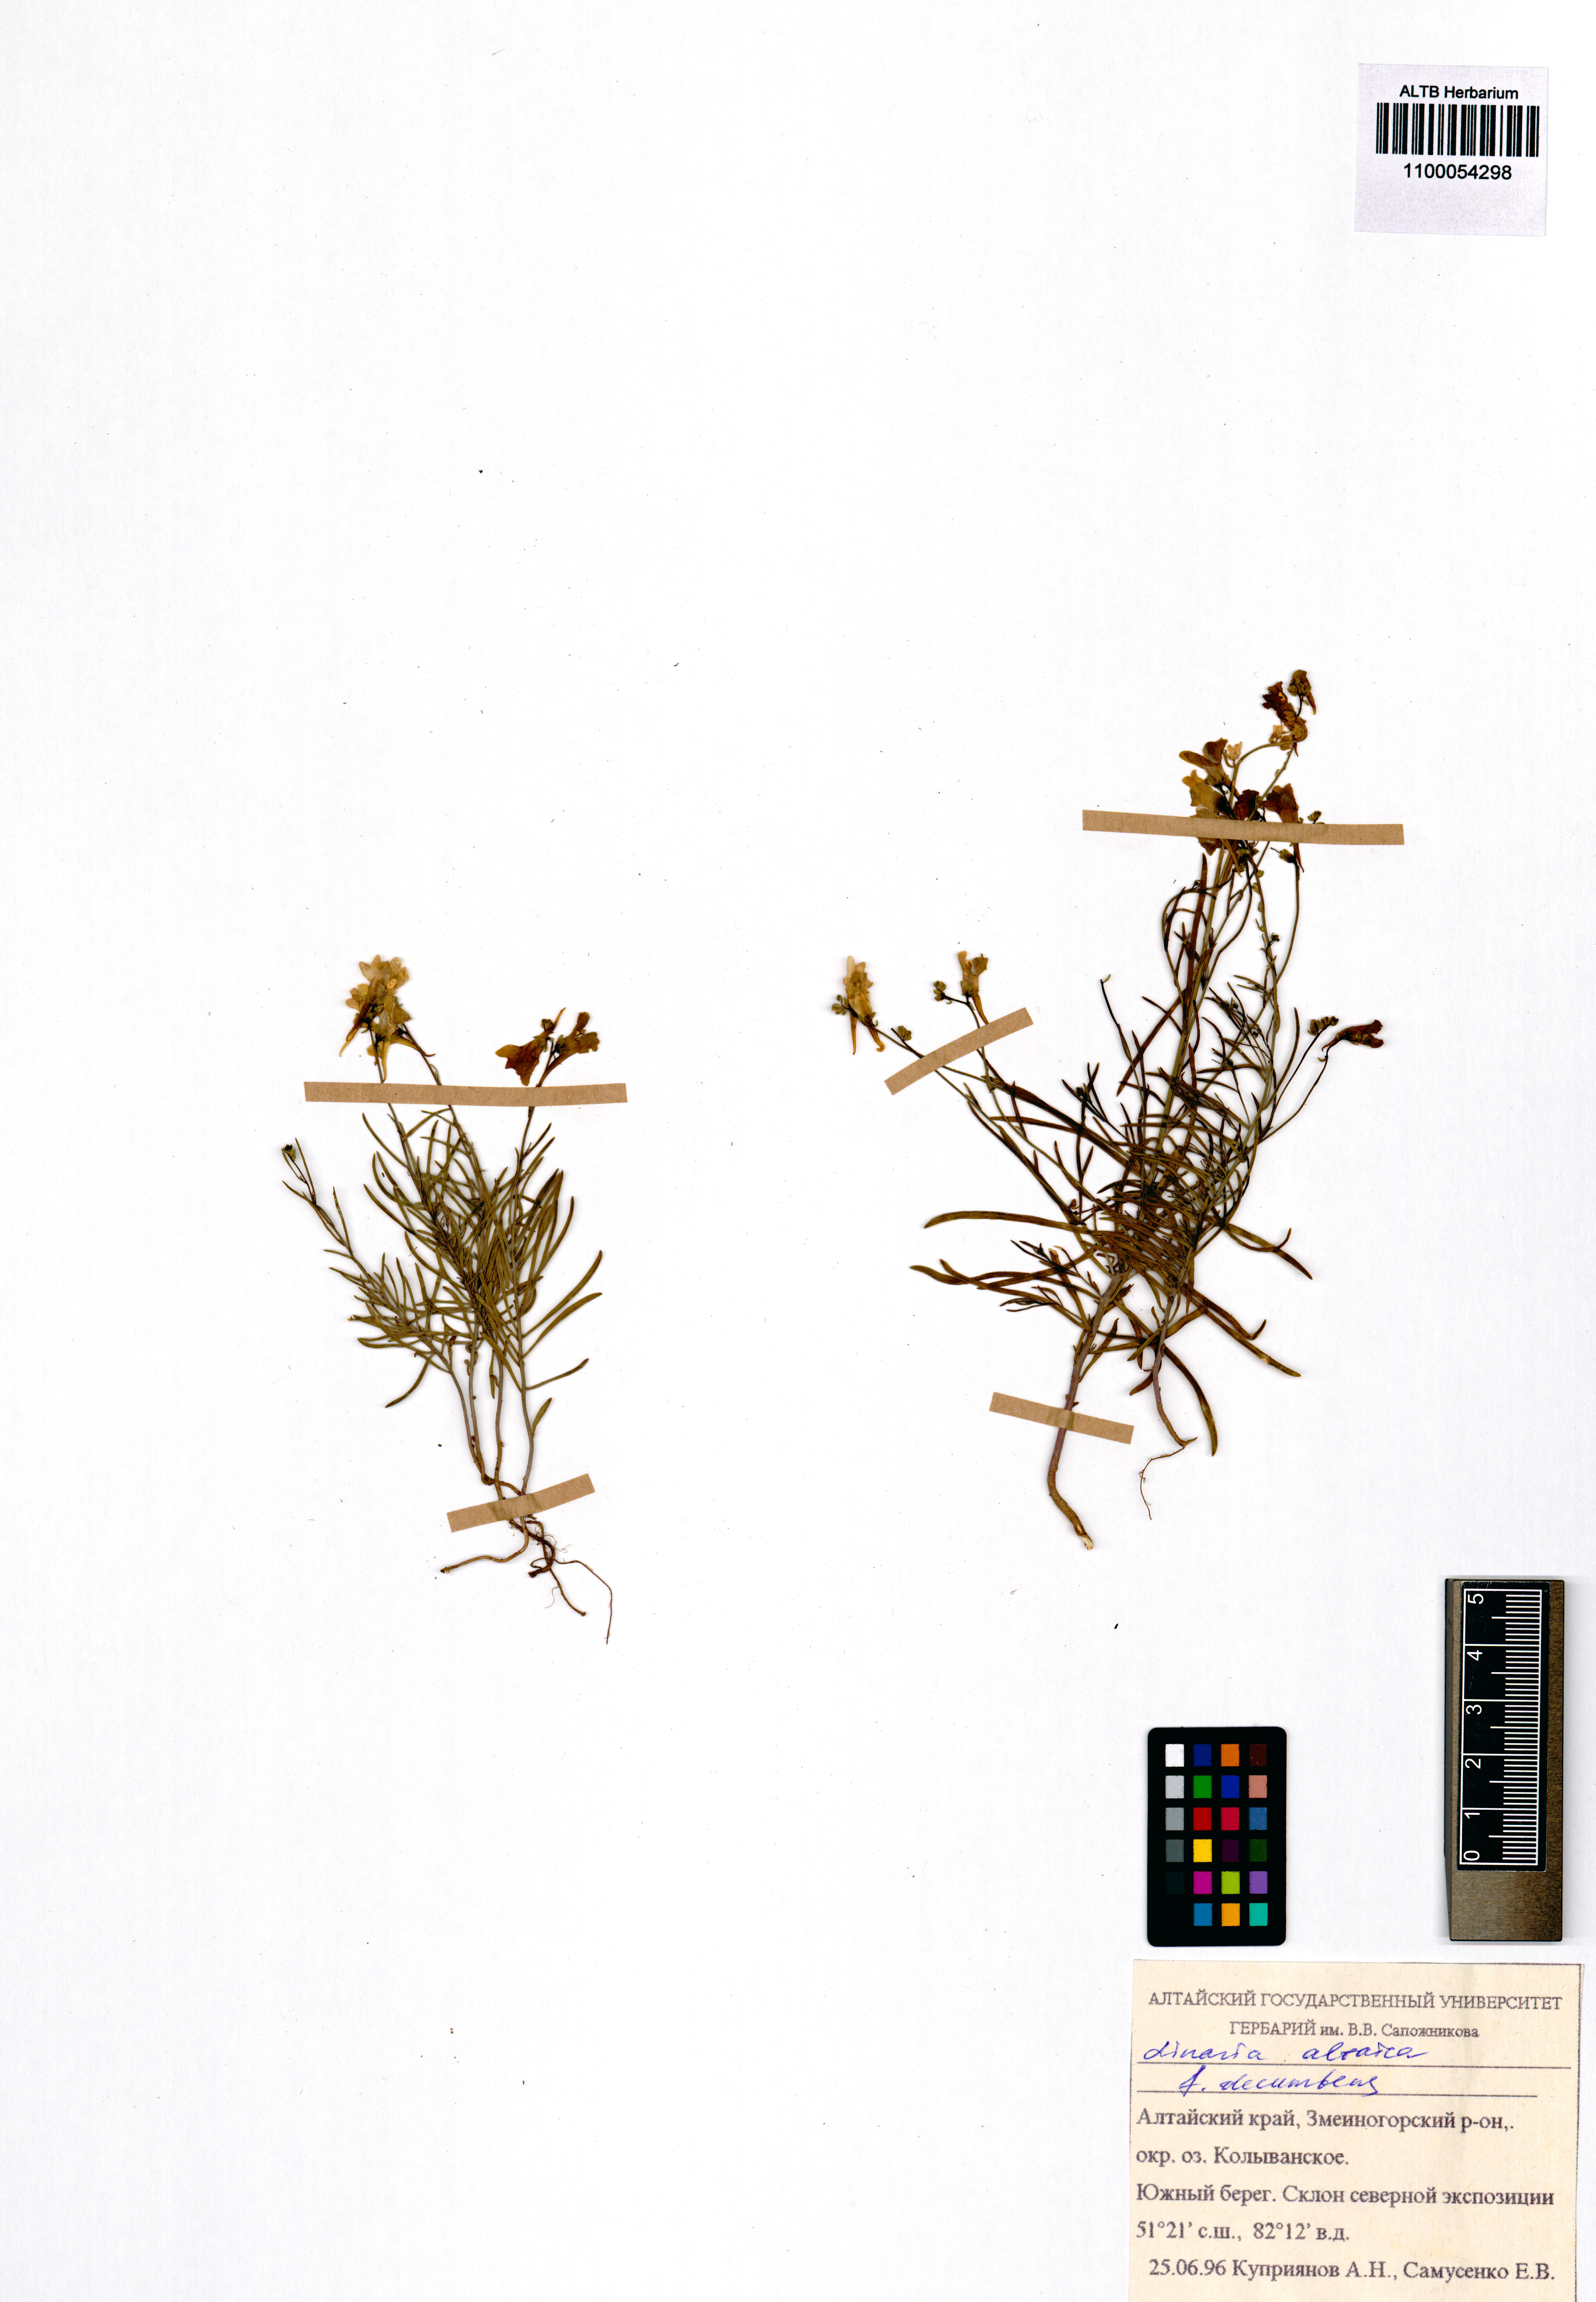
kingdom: Plantae
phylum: Tracheophyta
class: Magnoliopsida
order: Lamiales
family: Plantaginaceae
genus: Linaria
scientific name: Linaria altaica
